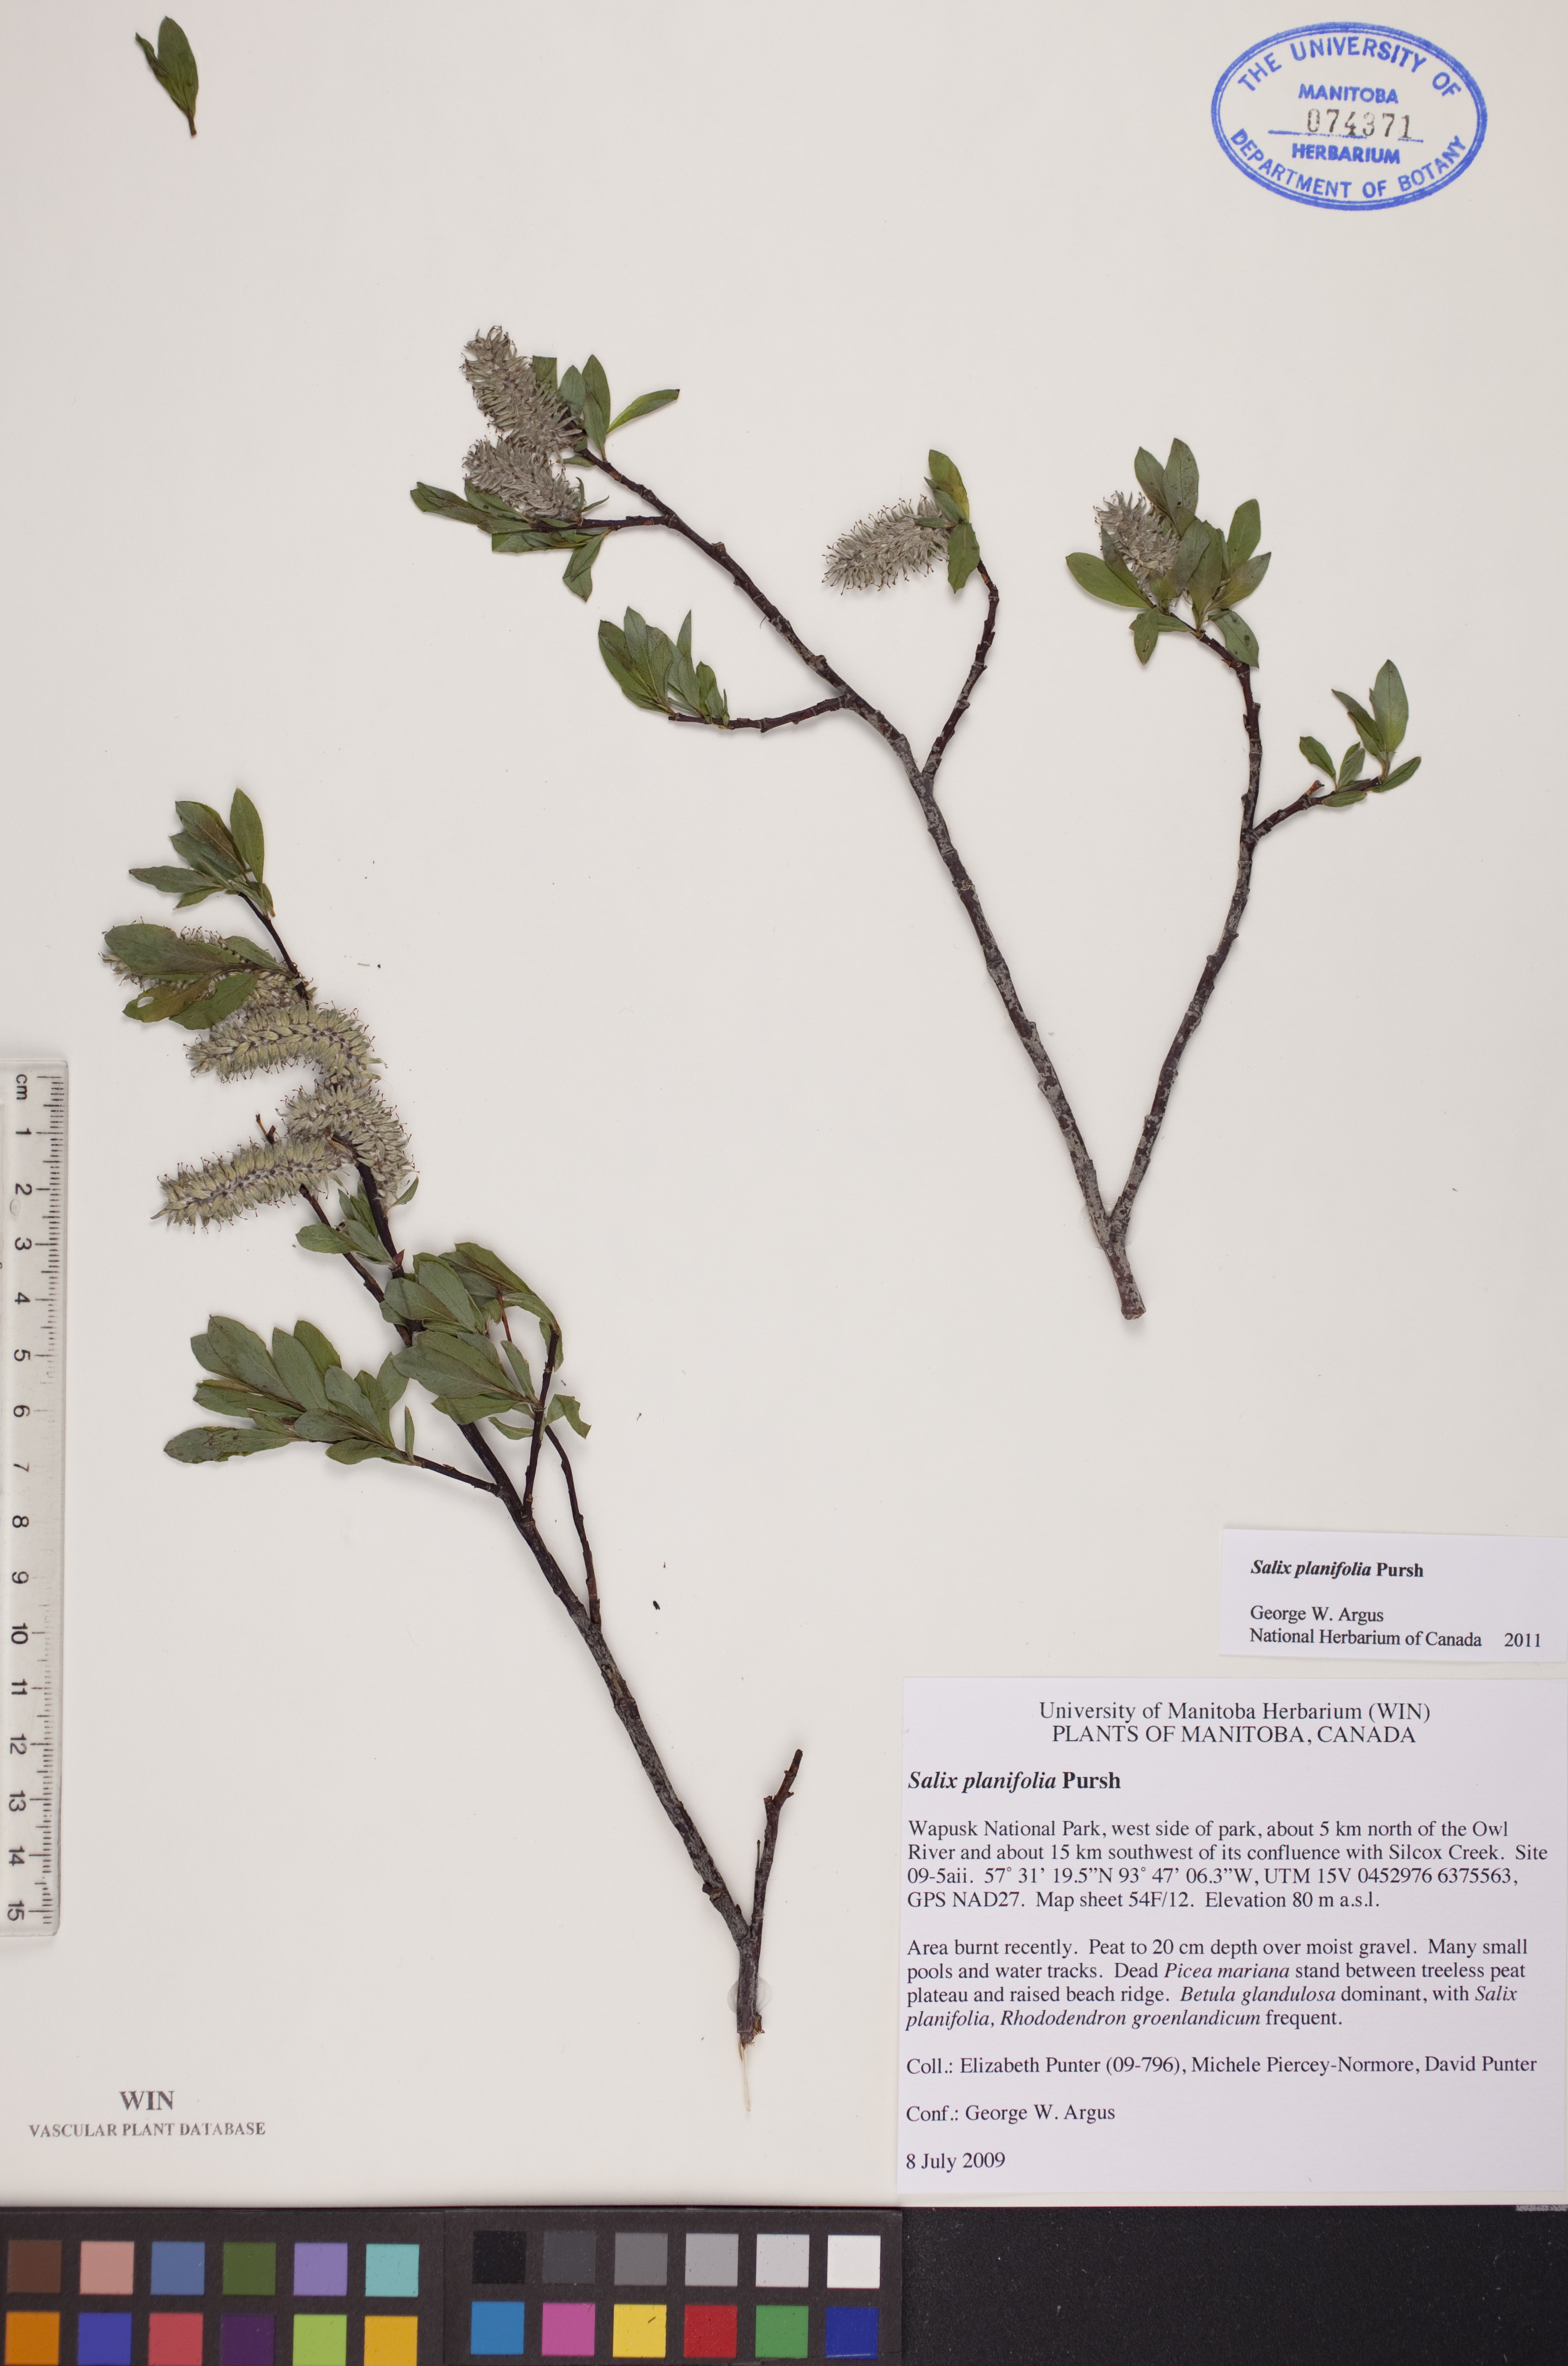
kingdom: Plantae
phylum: Tracheophyta
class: Magnoliopsida
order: Malpighiales
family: Salicaceae
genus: Salix
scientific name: Salix planifolia
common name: Mountain willow
